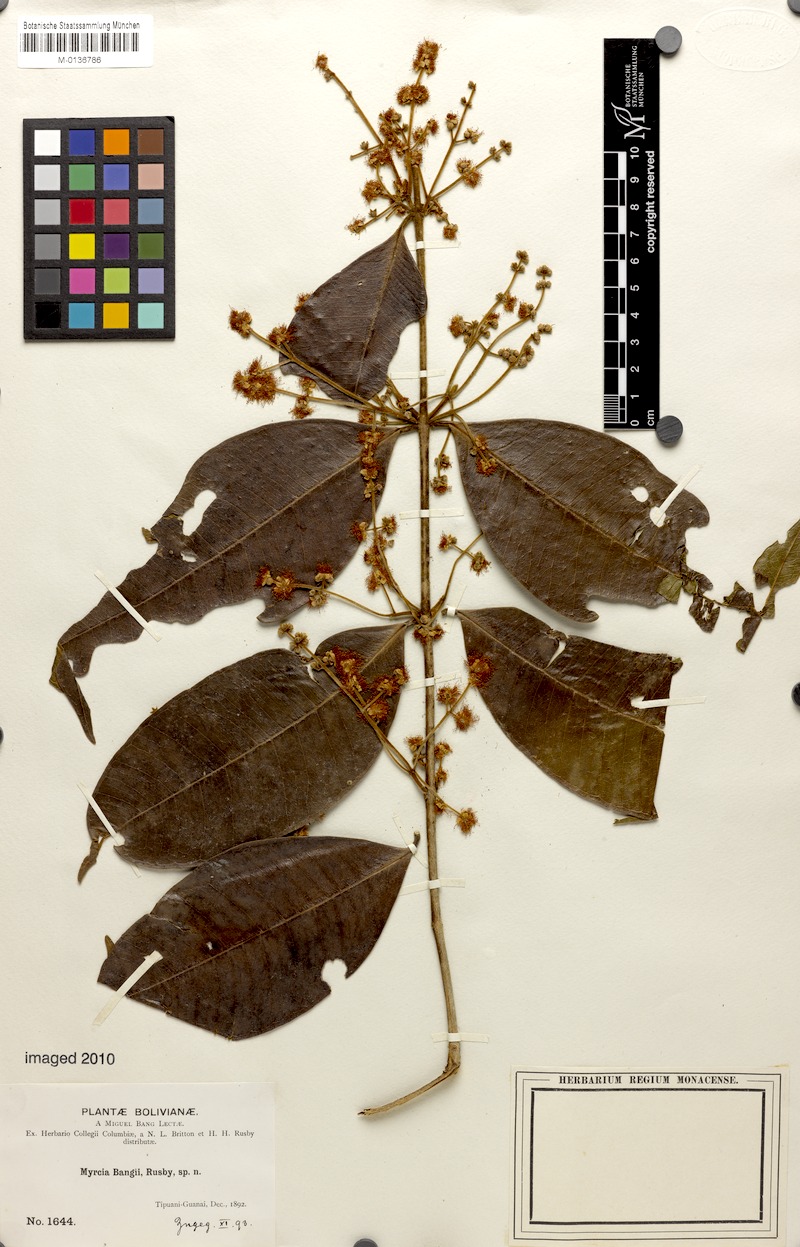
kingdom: Plantae
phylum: Tracheophyta
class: Magnoliopsida
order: Myrtales
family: Myrtaceae
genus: Myrcia
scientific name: Myrcia fascicularis
